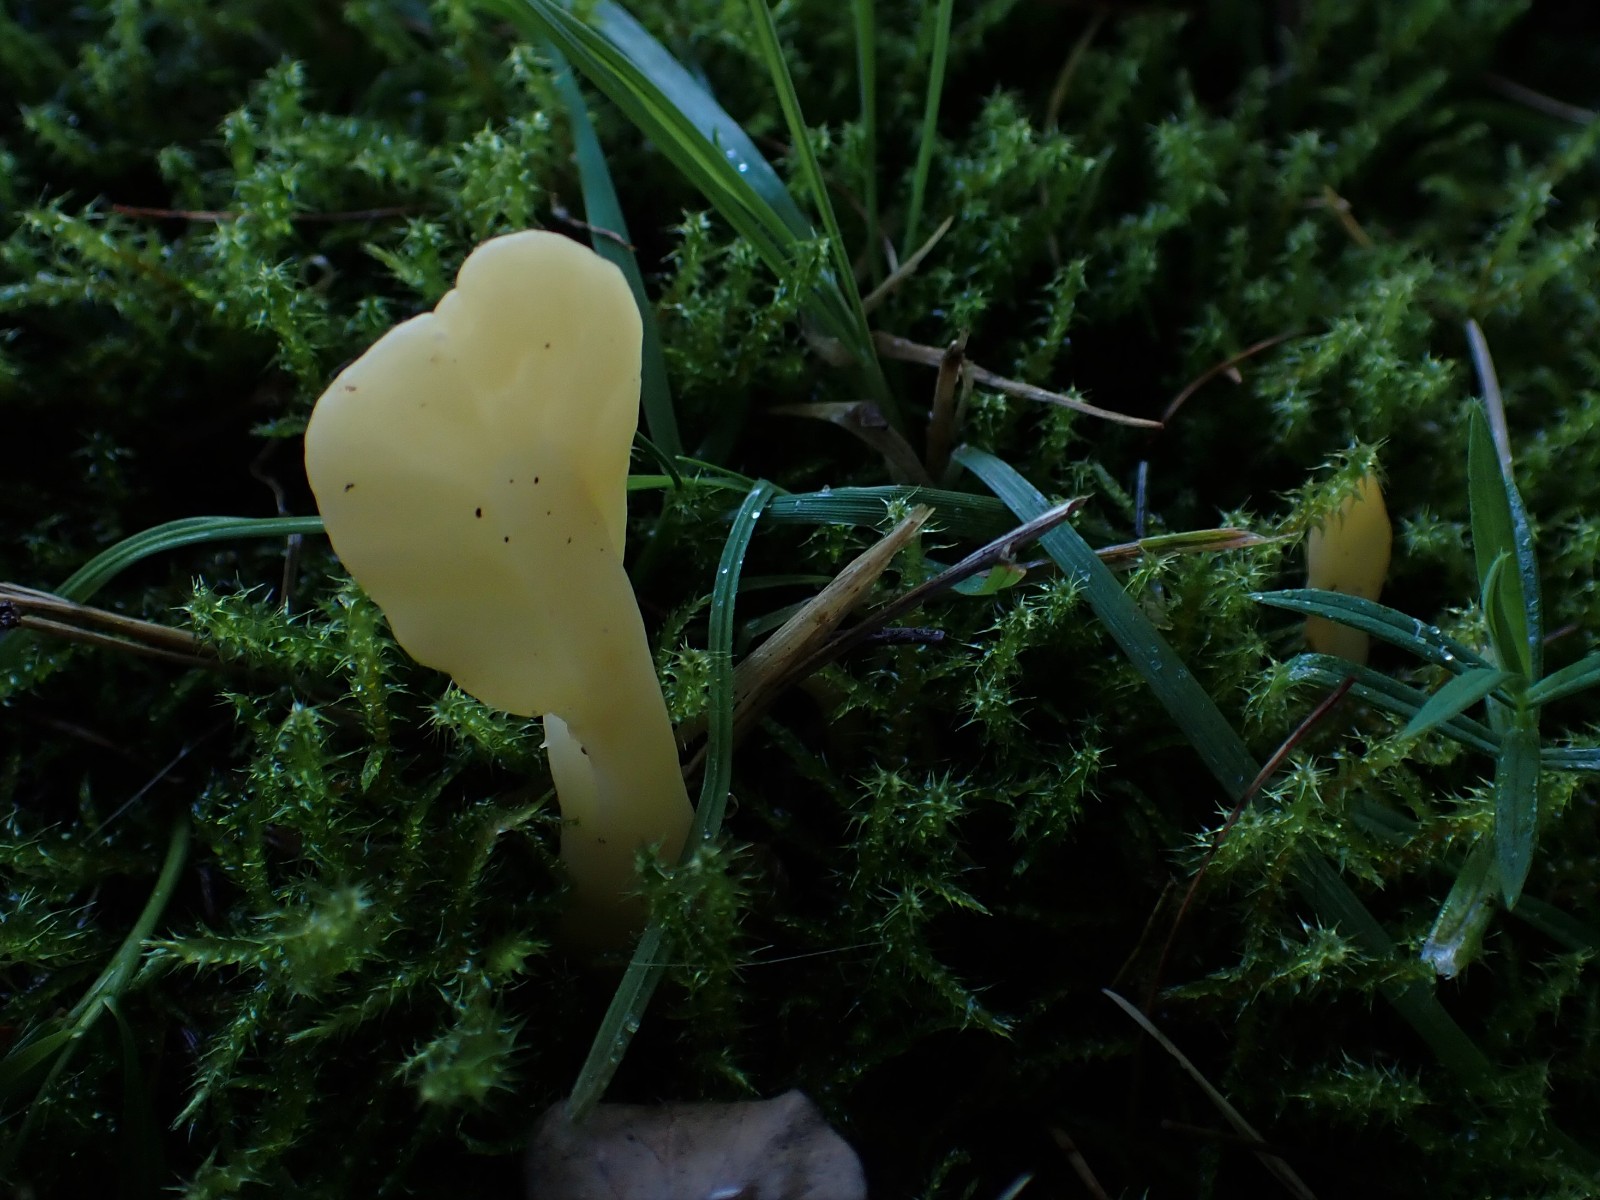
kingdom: Fungi
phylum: Ascomycota
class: Leotiomycetes
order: Rhytismatales
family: Cudoniaceae
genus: Spathularia
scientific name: Spathularia flavida
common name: gul spatelsvamp
